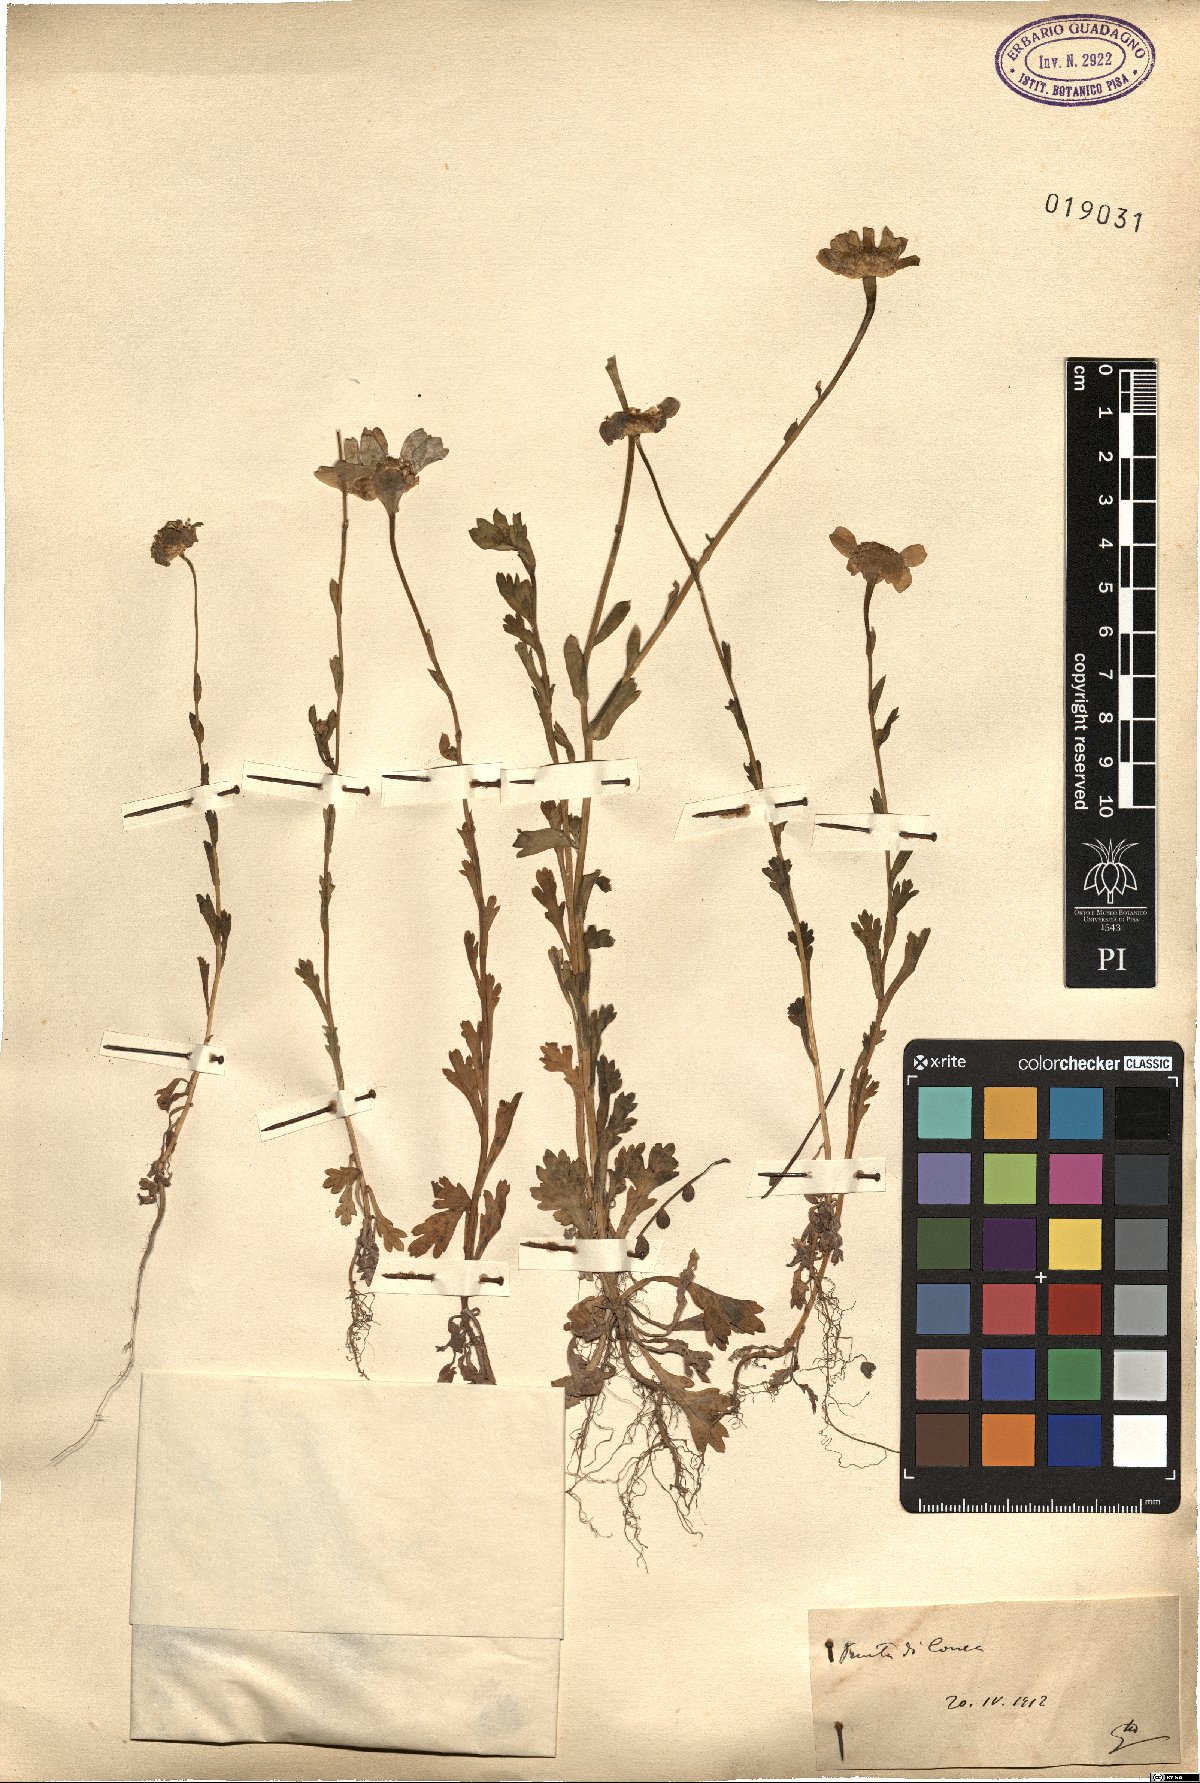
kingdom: Plantae
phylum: Tracheophyta
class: Magnoliopsida
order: Asterales
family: Asteraceae
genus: Pyrethrum
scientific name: Pyrethrum
